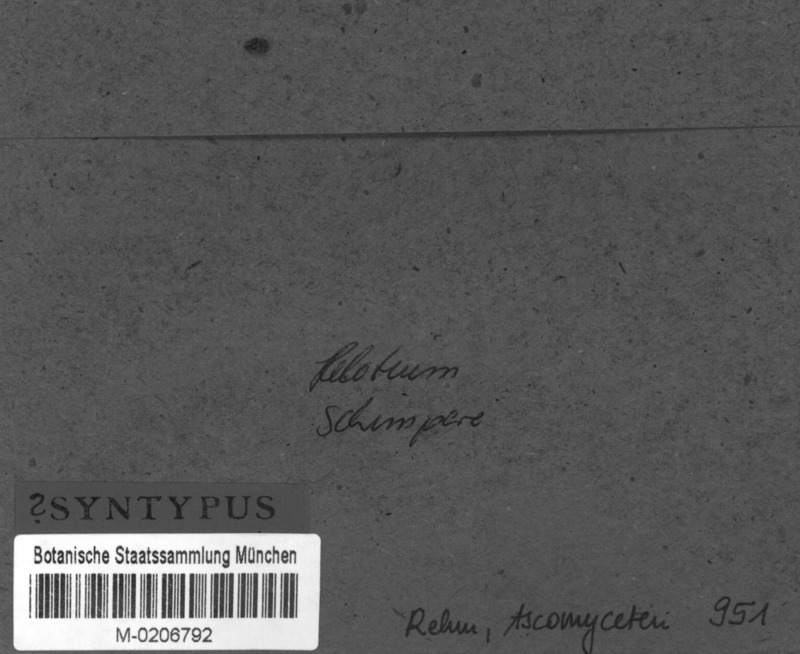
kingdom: Fungi
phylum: Ascomycota
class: Leotiomycetes
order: Helotiales
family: Tricladiaceae
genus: Helotium
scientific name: Helotium schimperi
